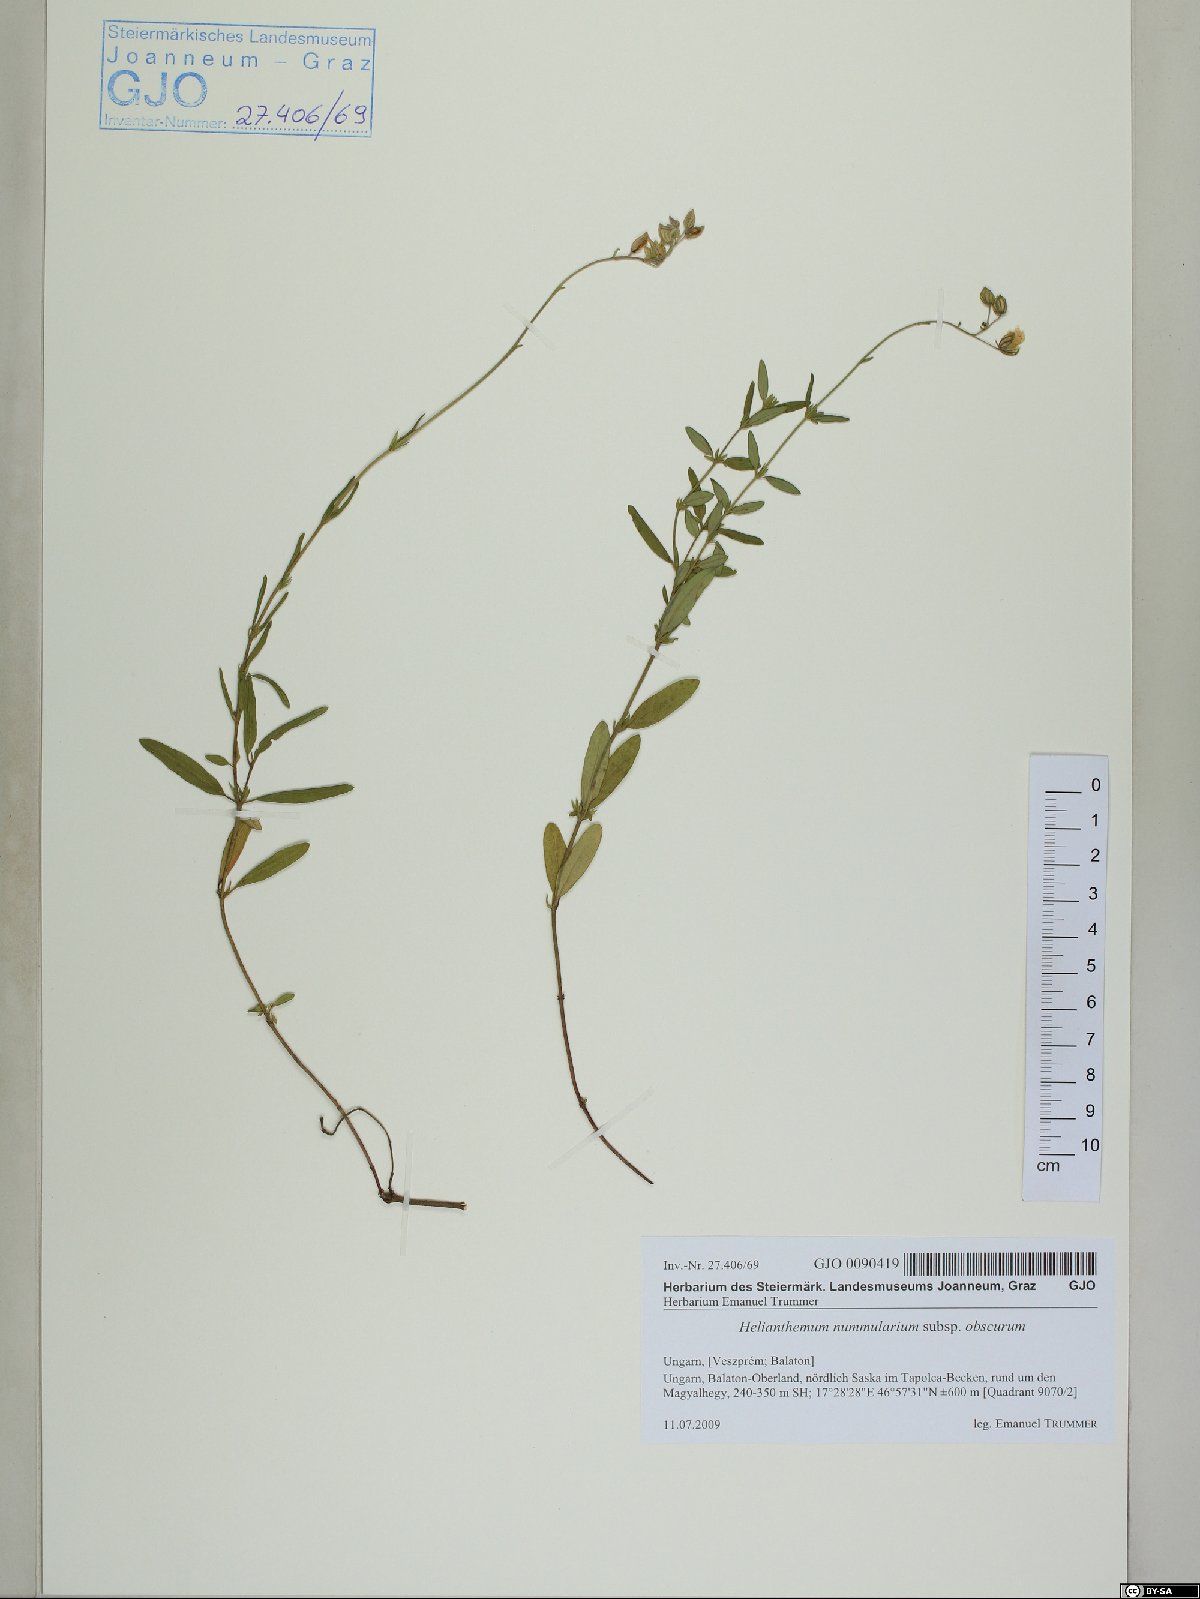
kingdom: Plantae
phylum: Tracheophyta
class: Magnoliopsida
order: Malvales
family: Cistaceae
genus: Helianthemum
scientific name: Helianthemum nummularium
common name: Common rock-rose
